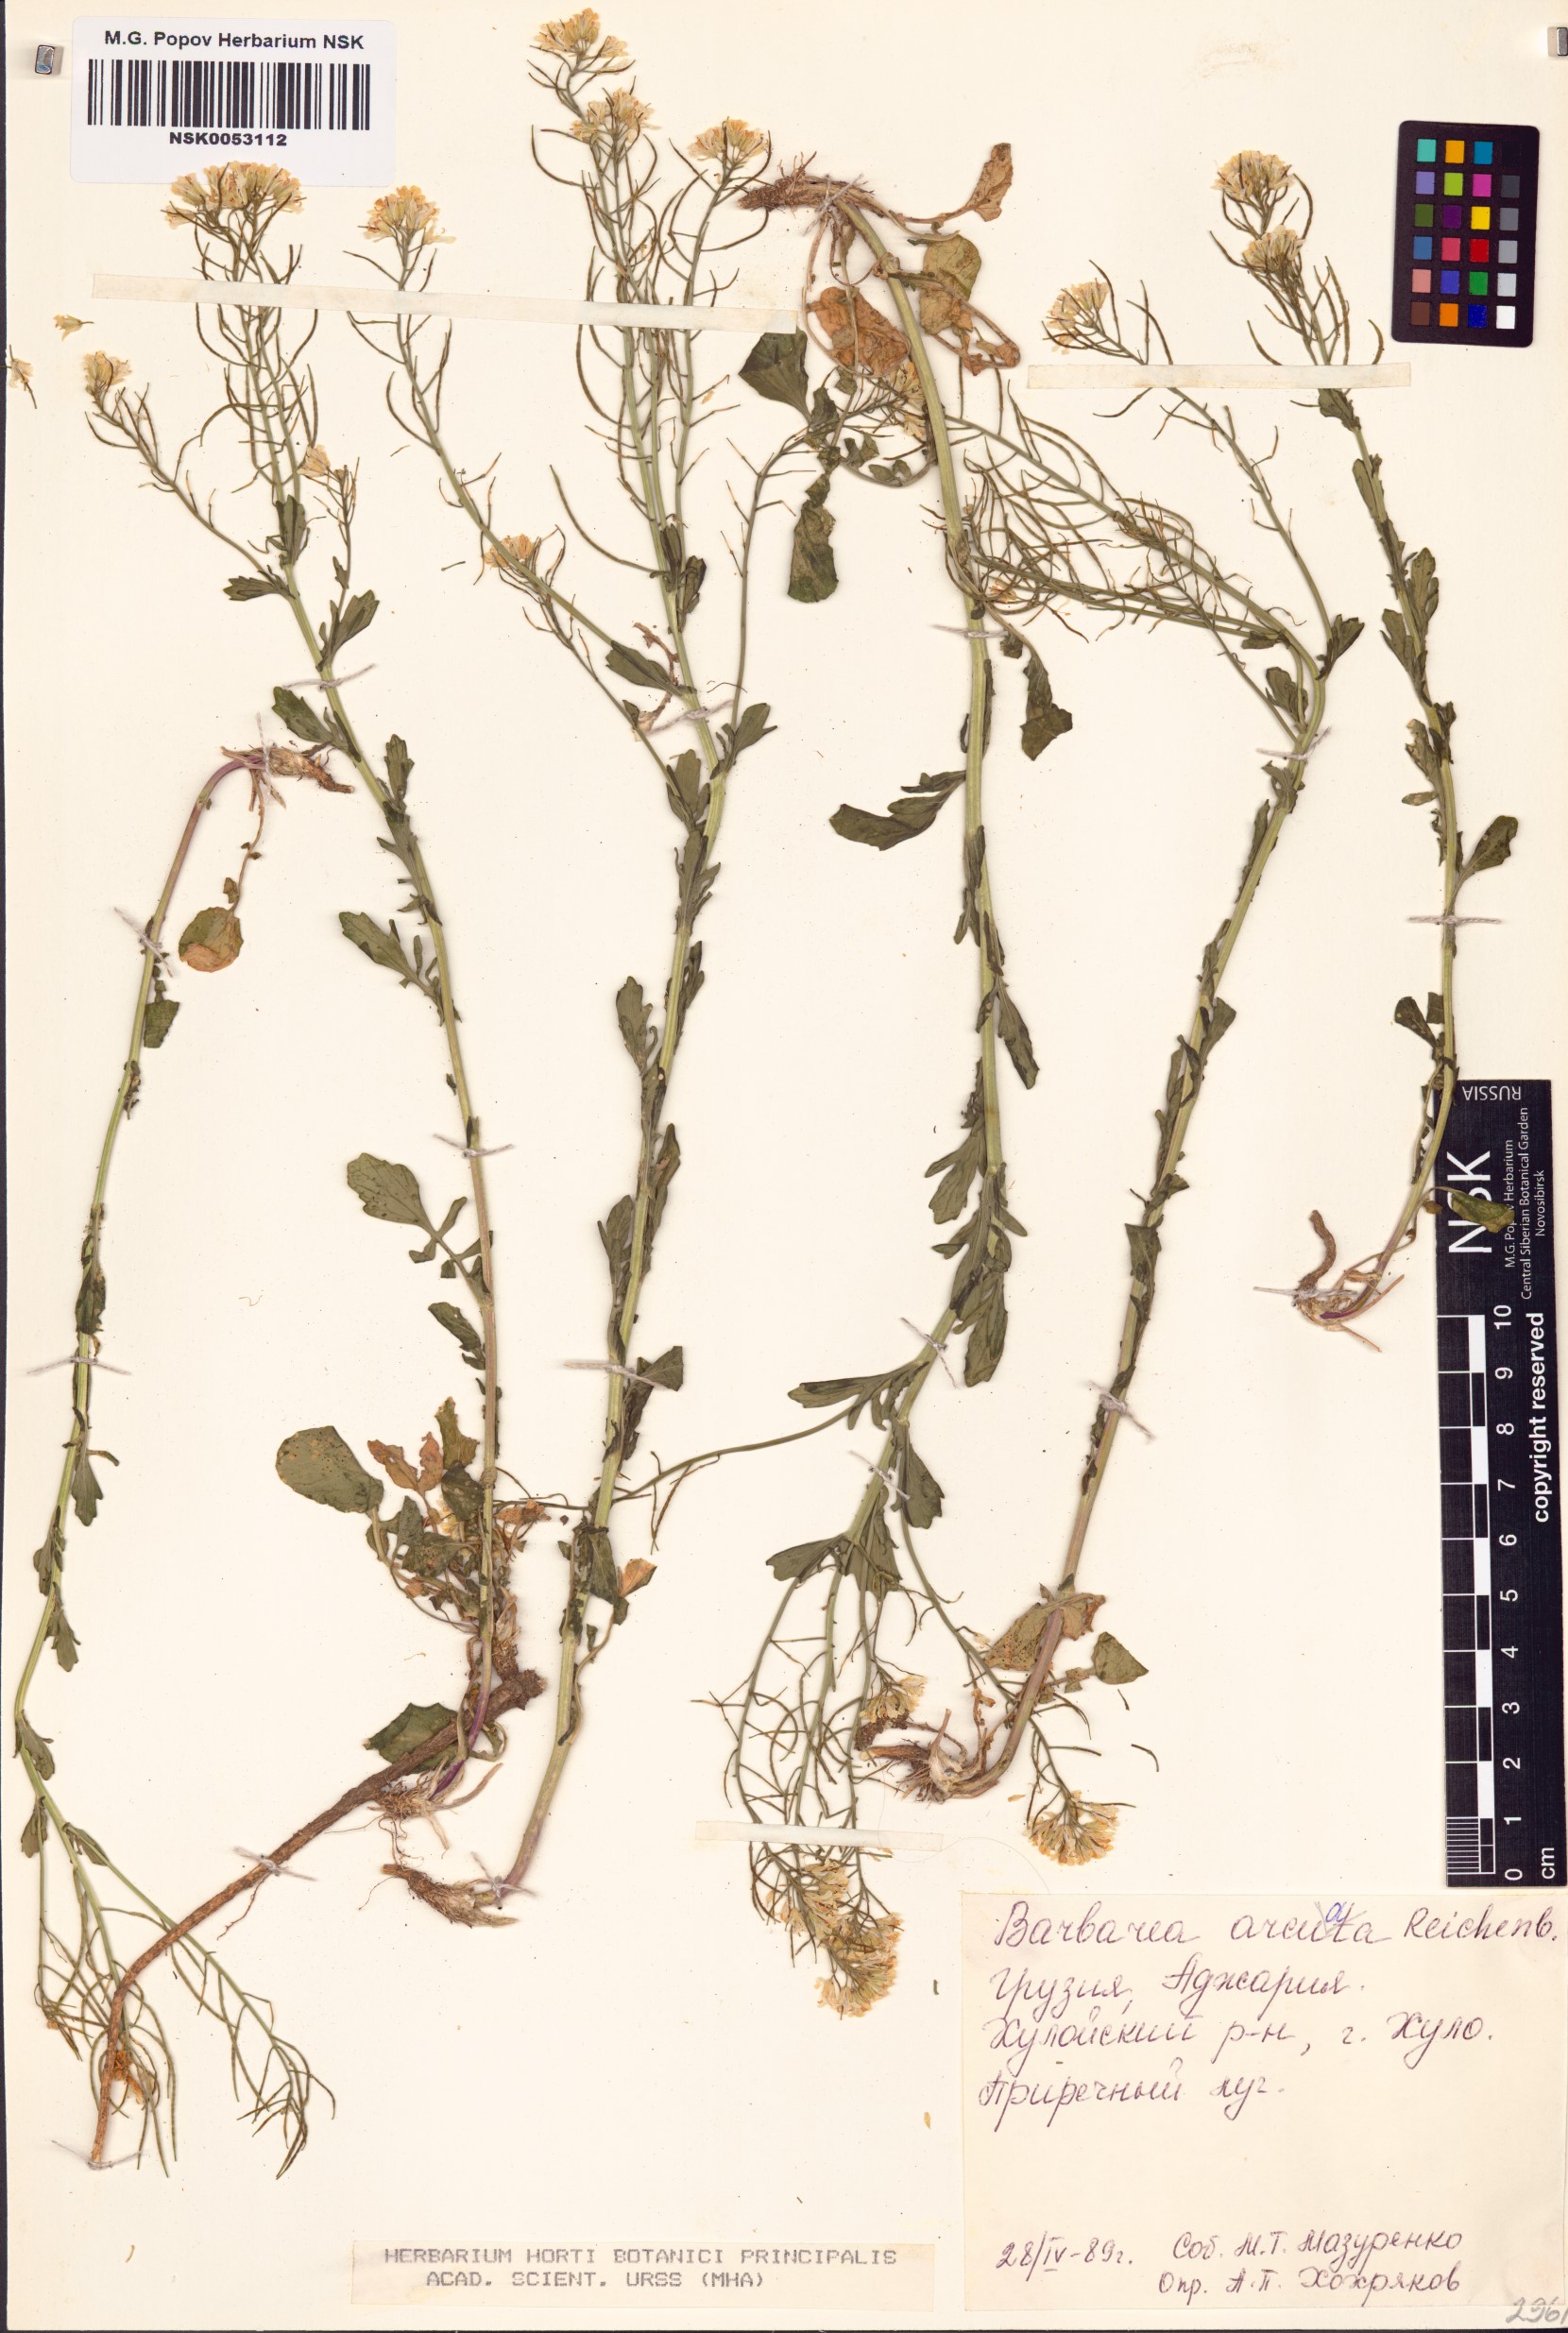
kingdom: Plantae
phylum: Tracheophyta
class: Magnoliopsida
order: Brassicales
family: Brassicaceae
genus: Barbarea
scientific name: Barbarea vulgaris
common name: Cressy-greens
